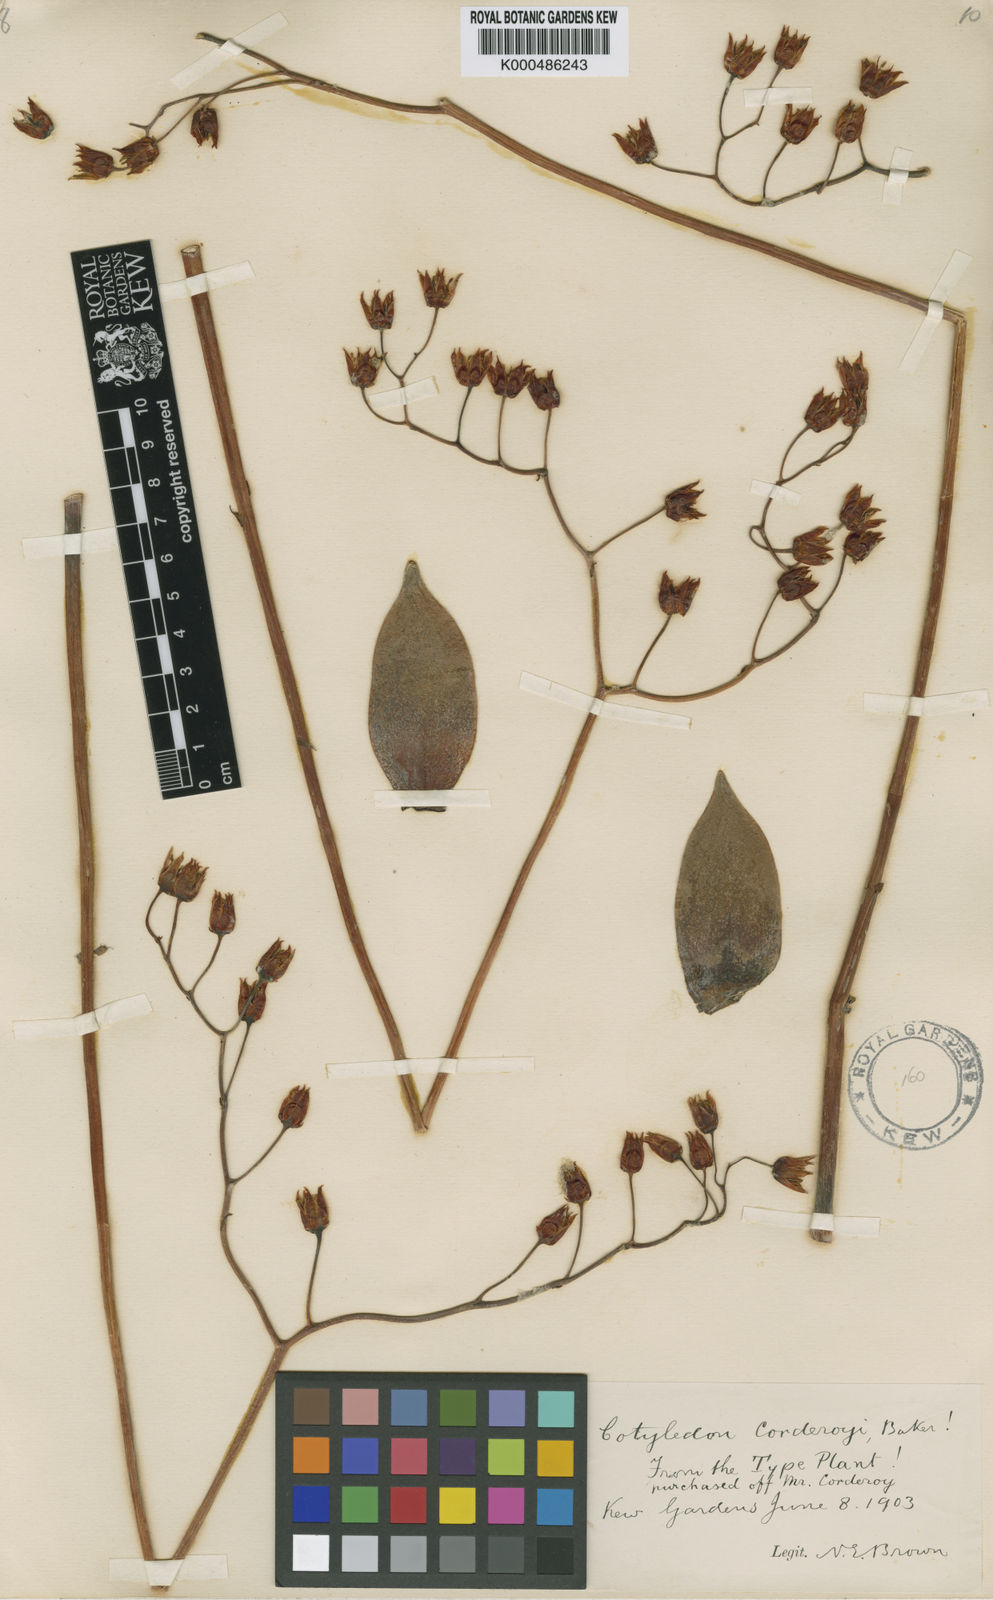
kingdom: Plantae
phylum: Tracheophyta
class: Magnoliopsida
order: Saxifragales
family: Crassulaceae
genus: Echeveria
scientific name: Echeveria agavoides
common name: Molded-wax
